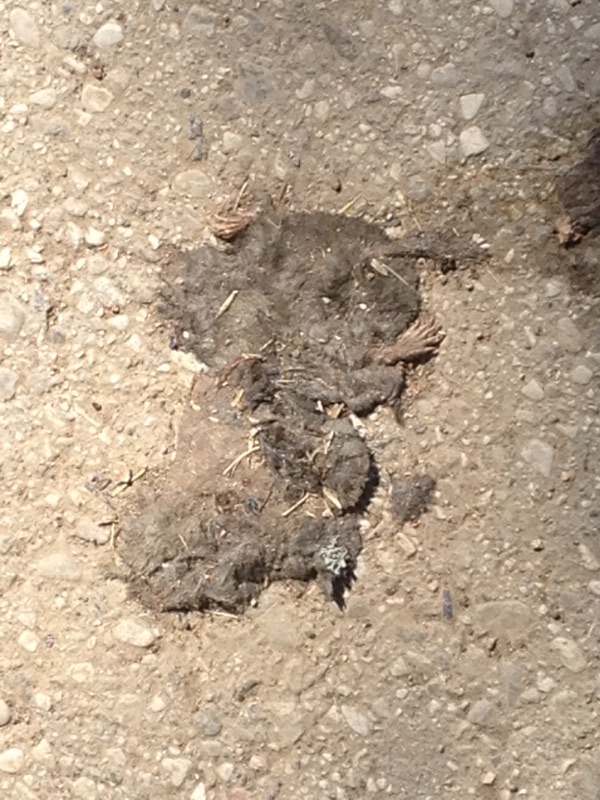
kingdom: Animalia
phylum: Chordata
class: Mammalia
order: Soricomorpha
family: Talpidae
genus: Talpa
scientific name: Talpa europaea
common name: European mole
